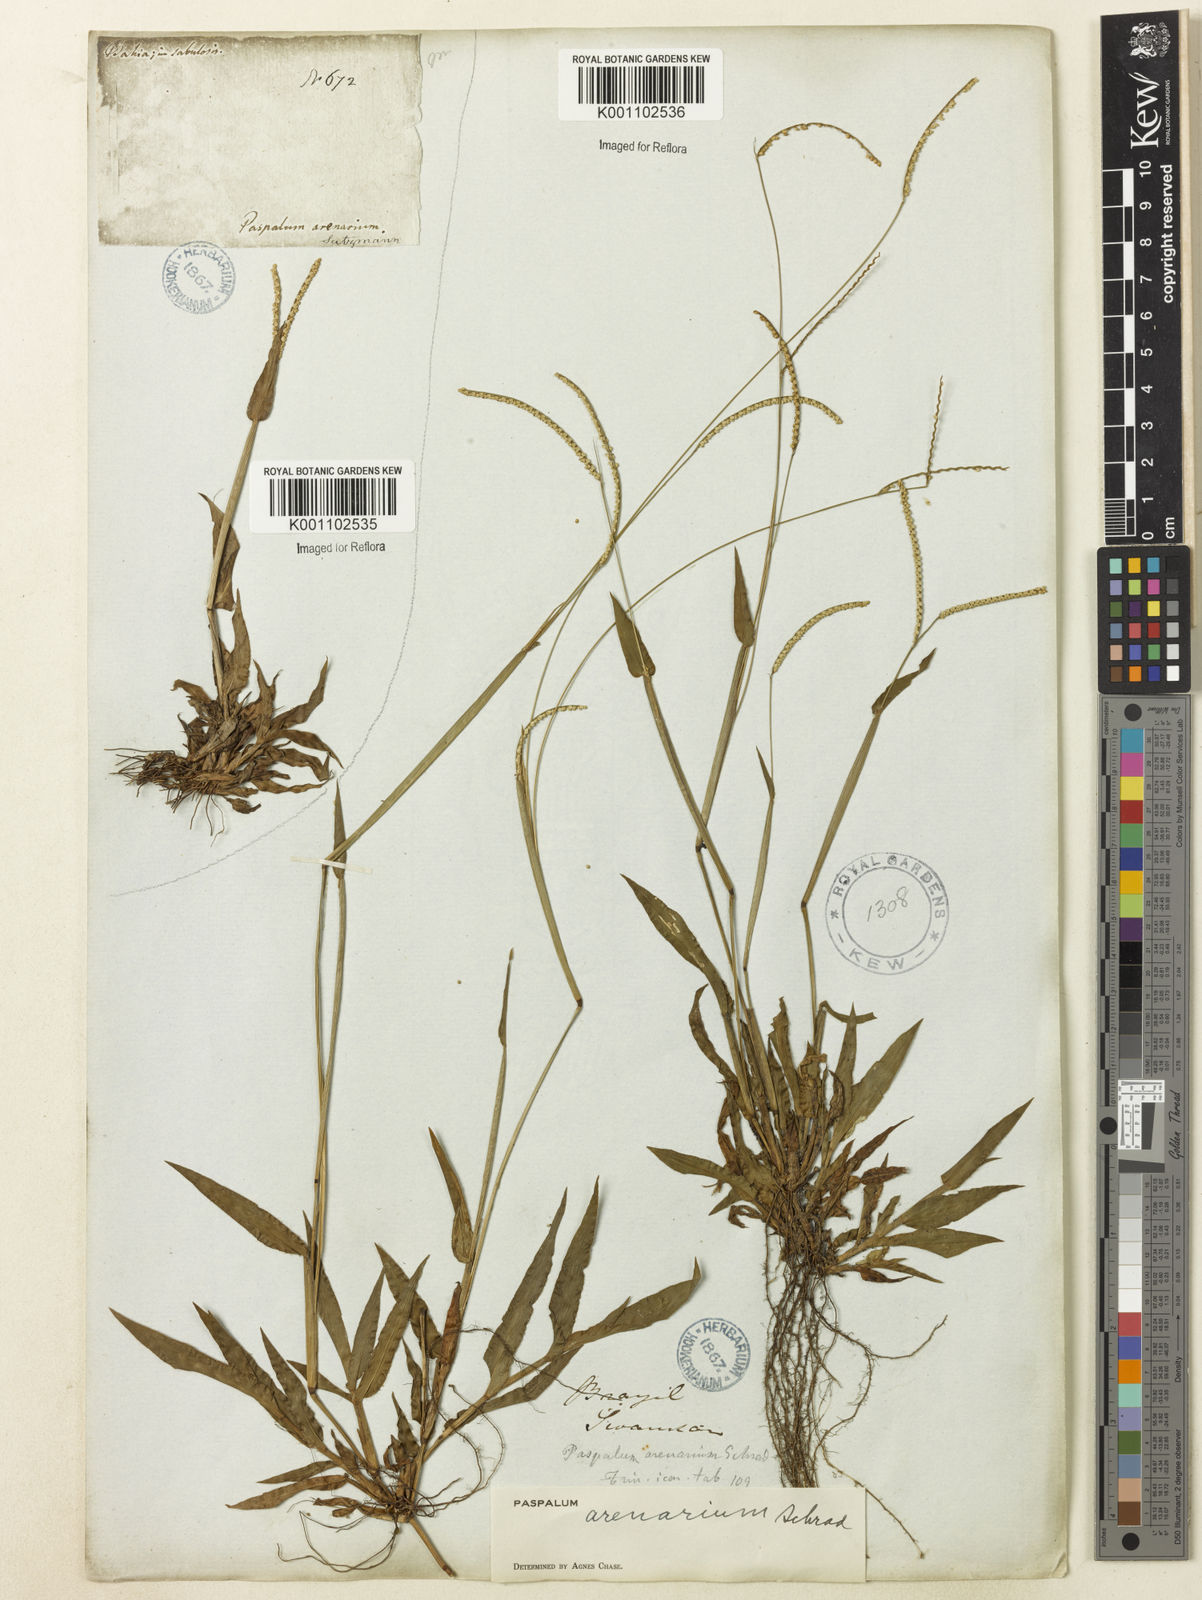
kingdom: Plantae
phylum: Tracheophyta
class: Liliopsida
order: Poales
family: Poaceae
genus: Paspalum
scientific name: Paspalum arenarium
